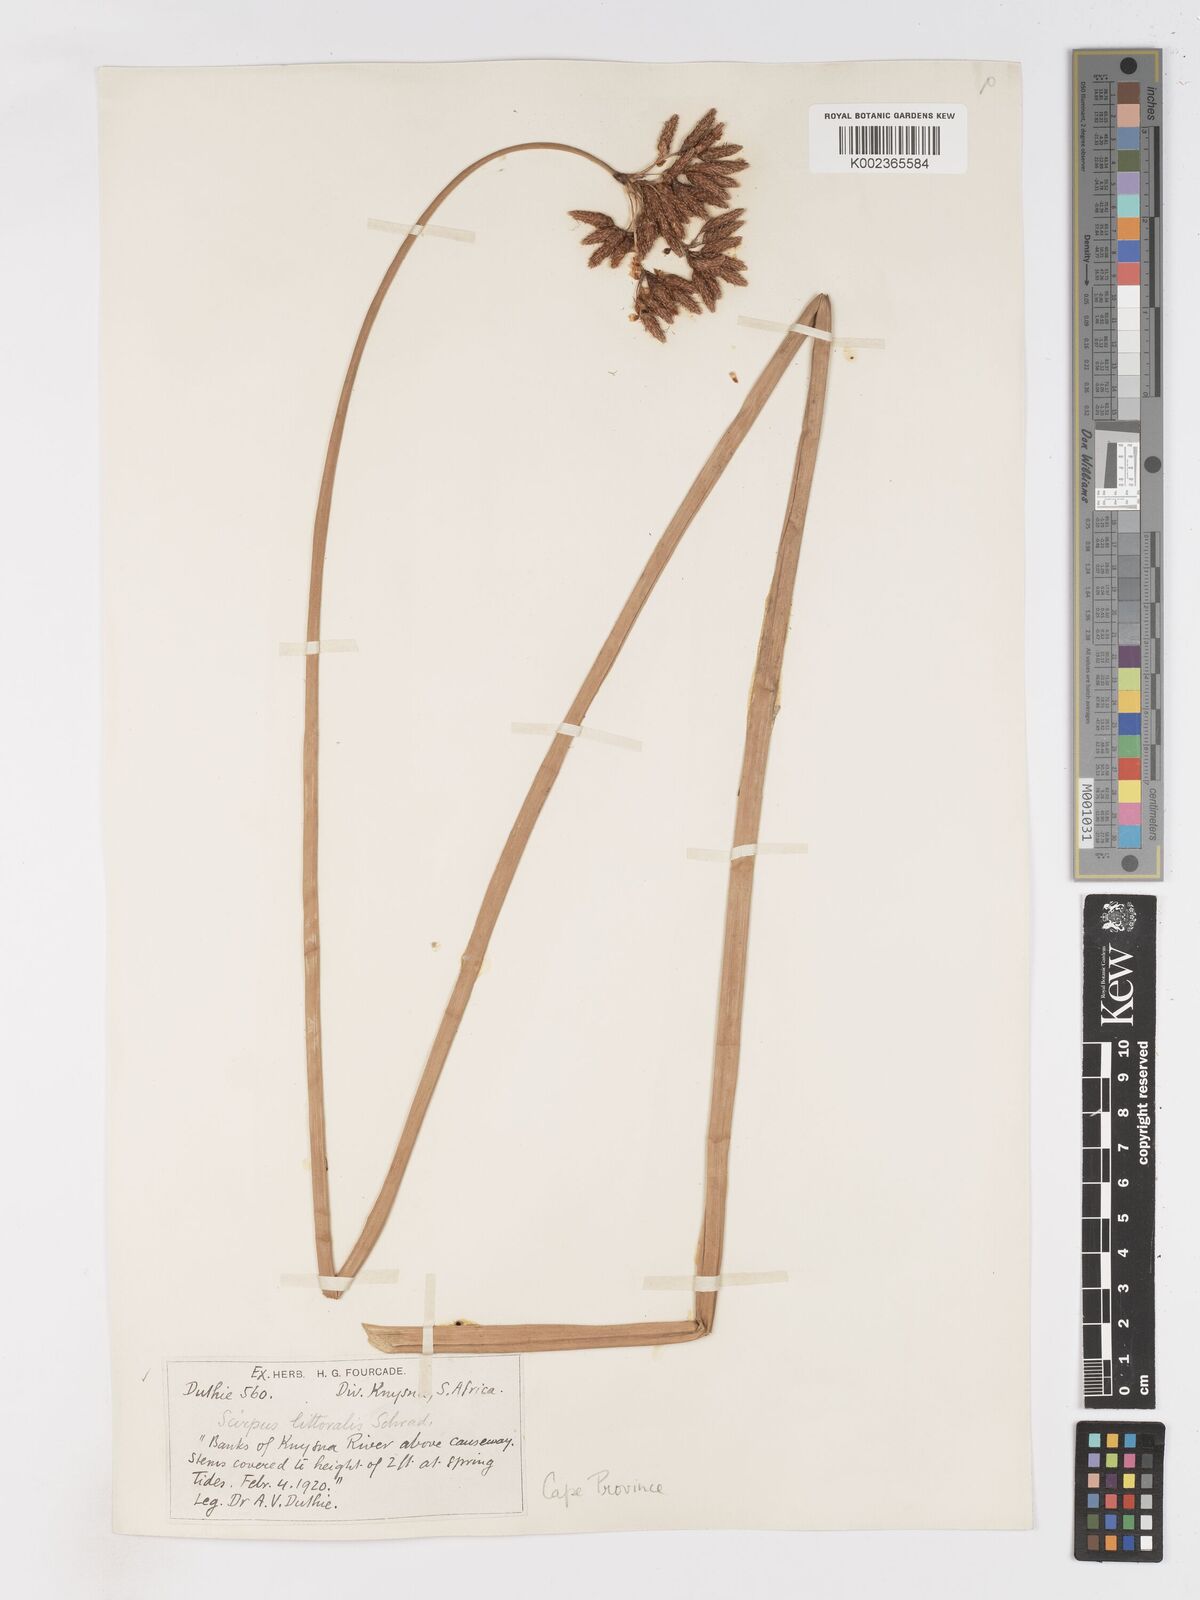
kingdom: Plantae
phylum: Tracheophyta
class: Liliopsida
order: Poales
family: Cyperaceae
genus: Schoenoplectus
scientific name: Schoenoplectus
